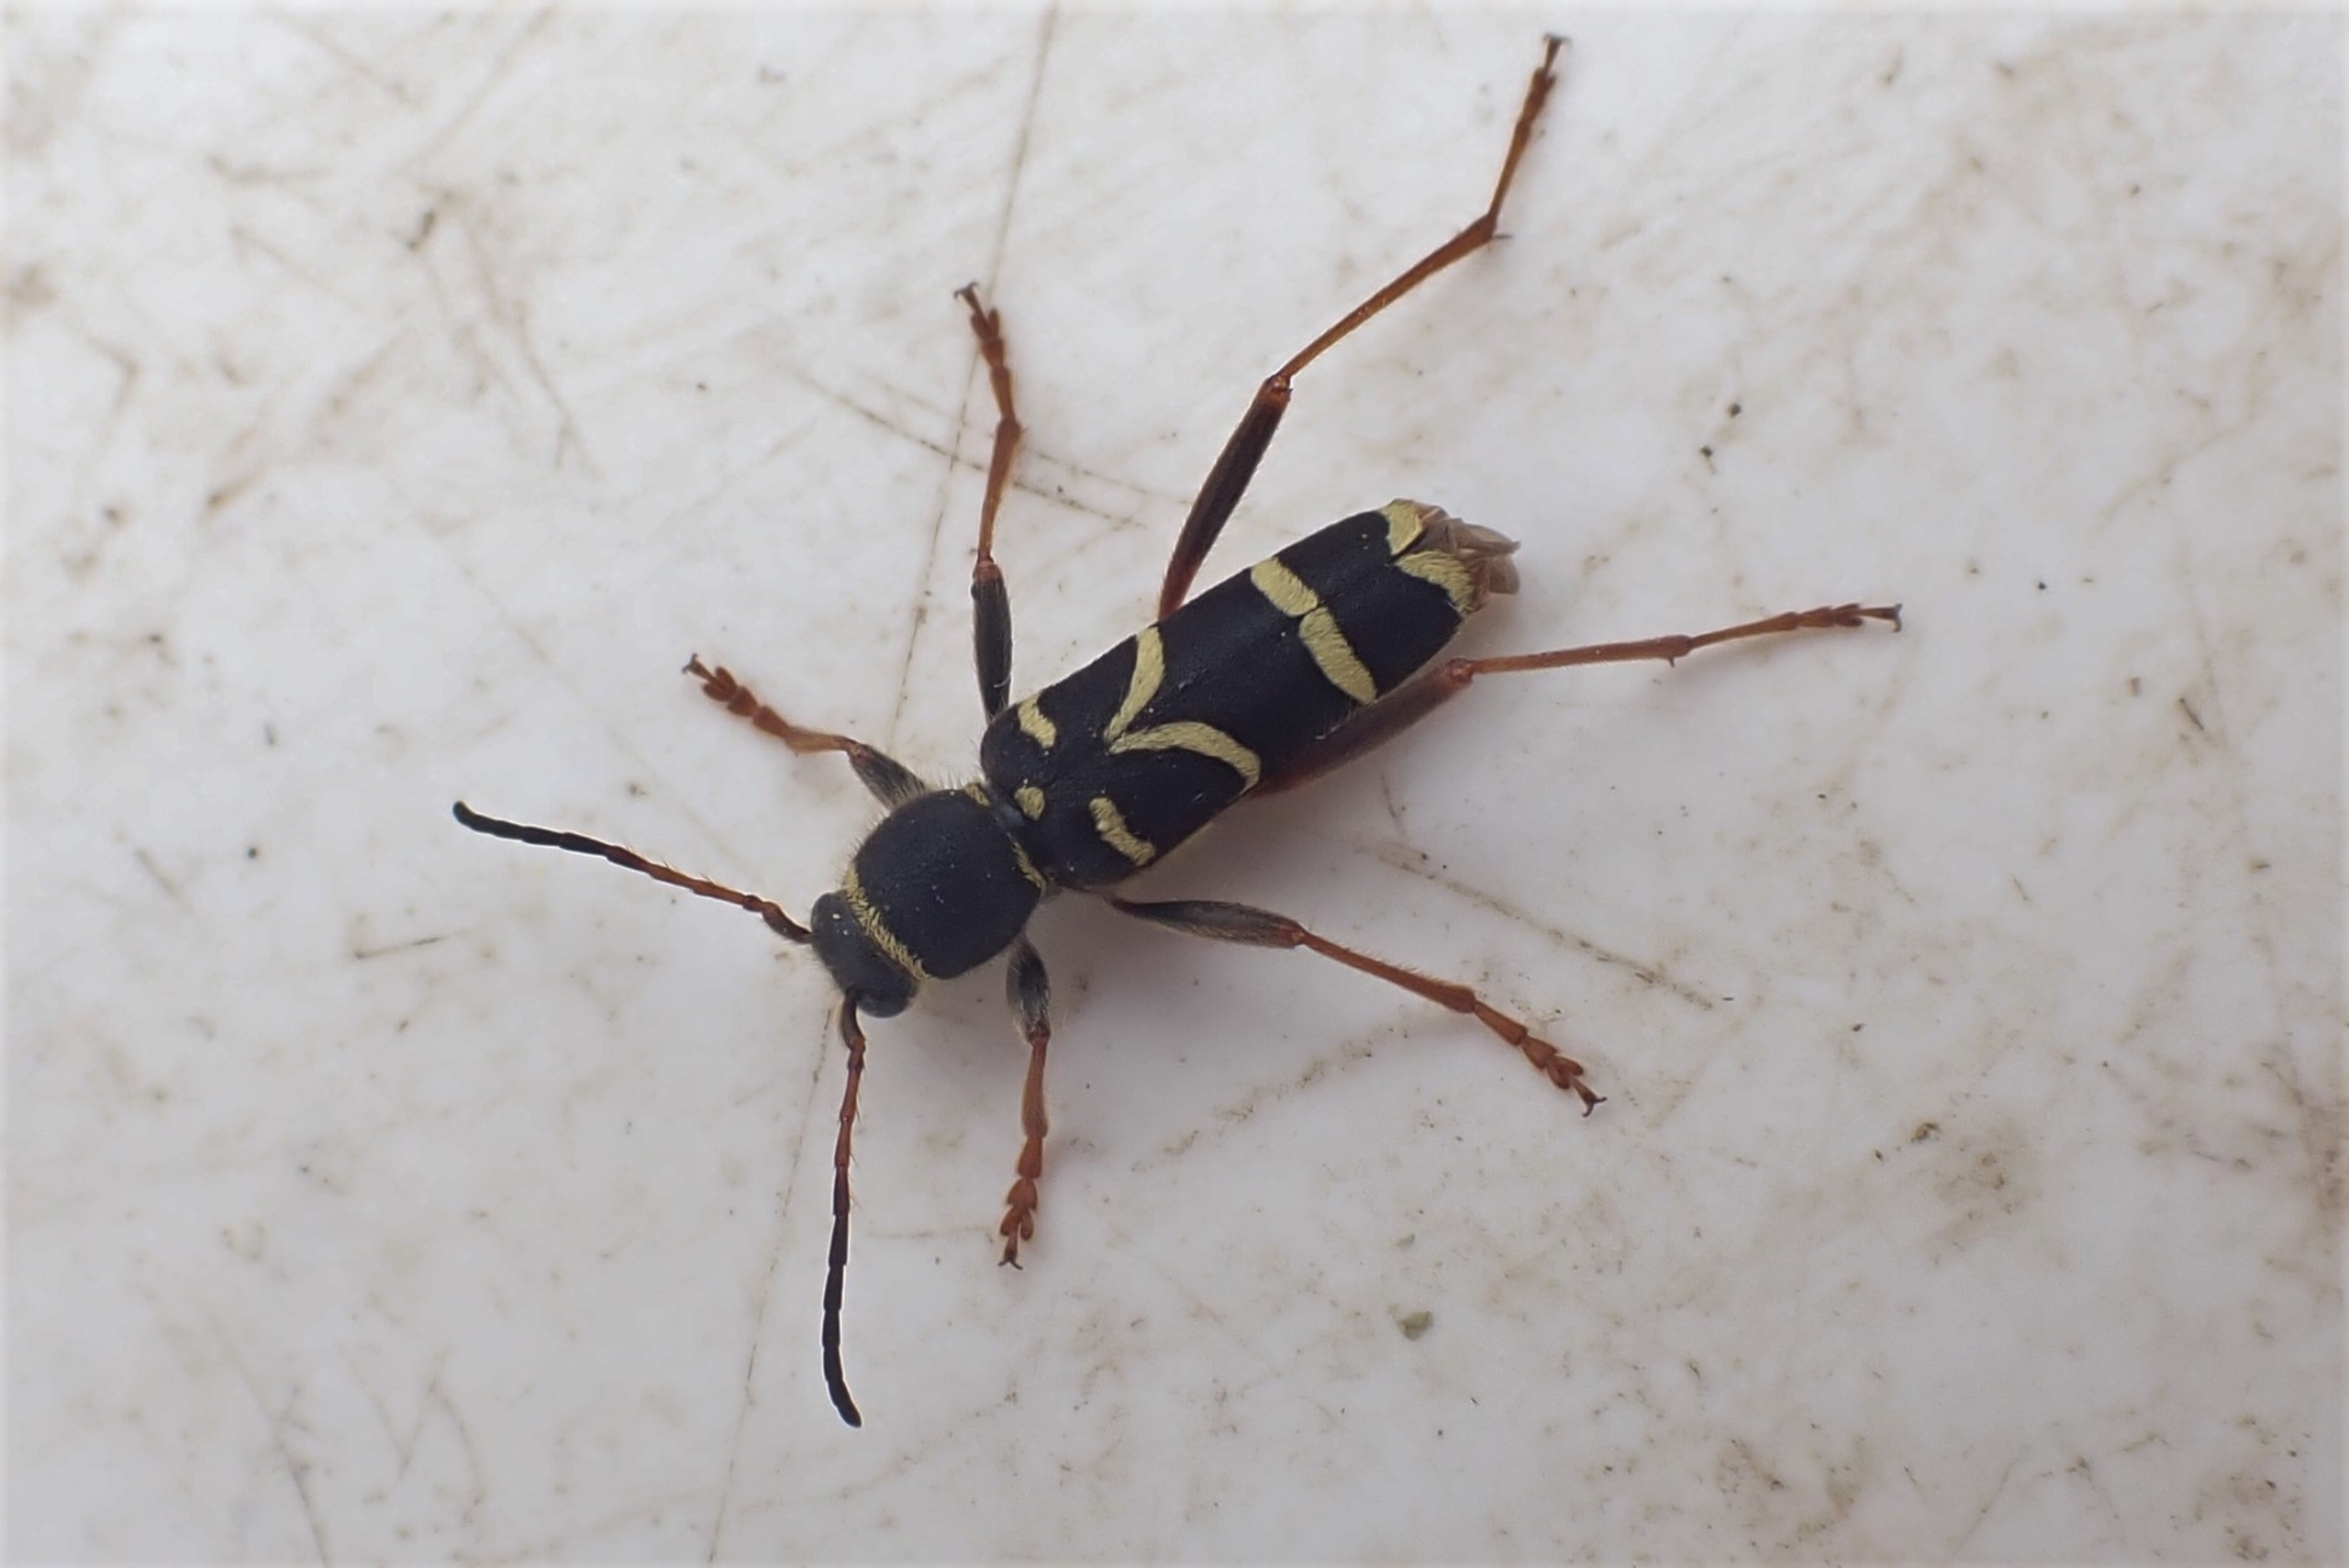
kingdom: Animalia
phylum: Arthropoda
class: Insecta
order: Coleoptera
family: Cerambycidae
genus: Clytus
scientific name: Clytus arietis
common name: Lille hvepsebuk
